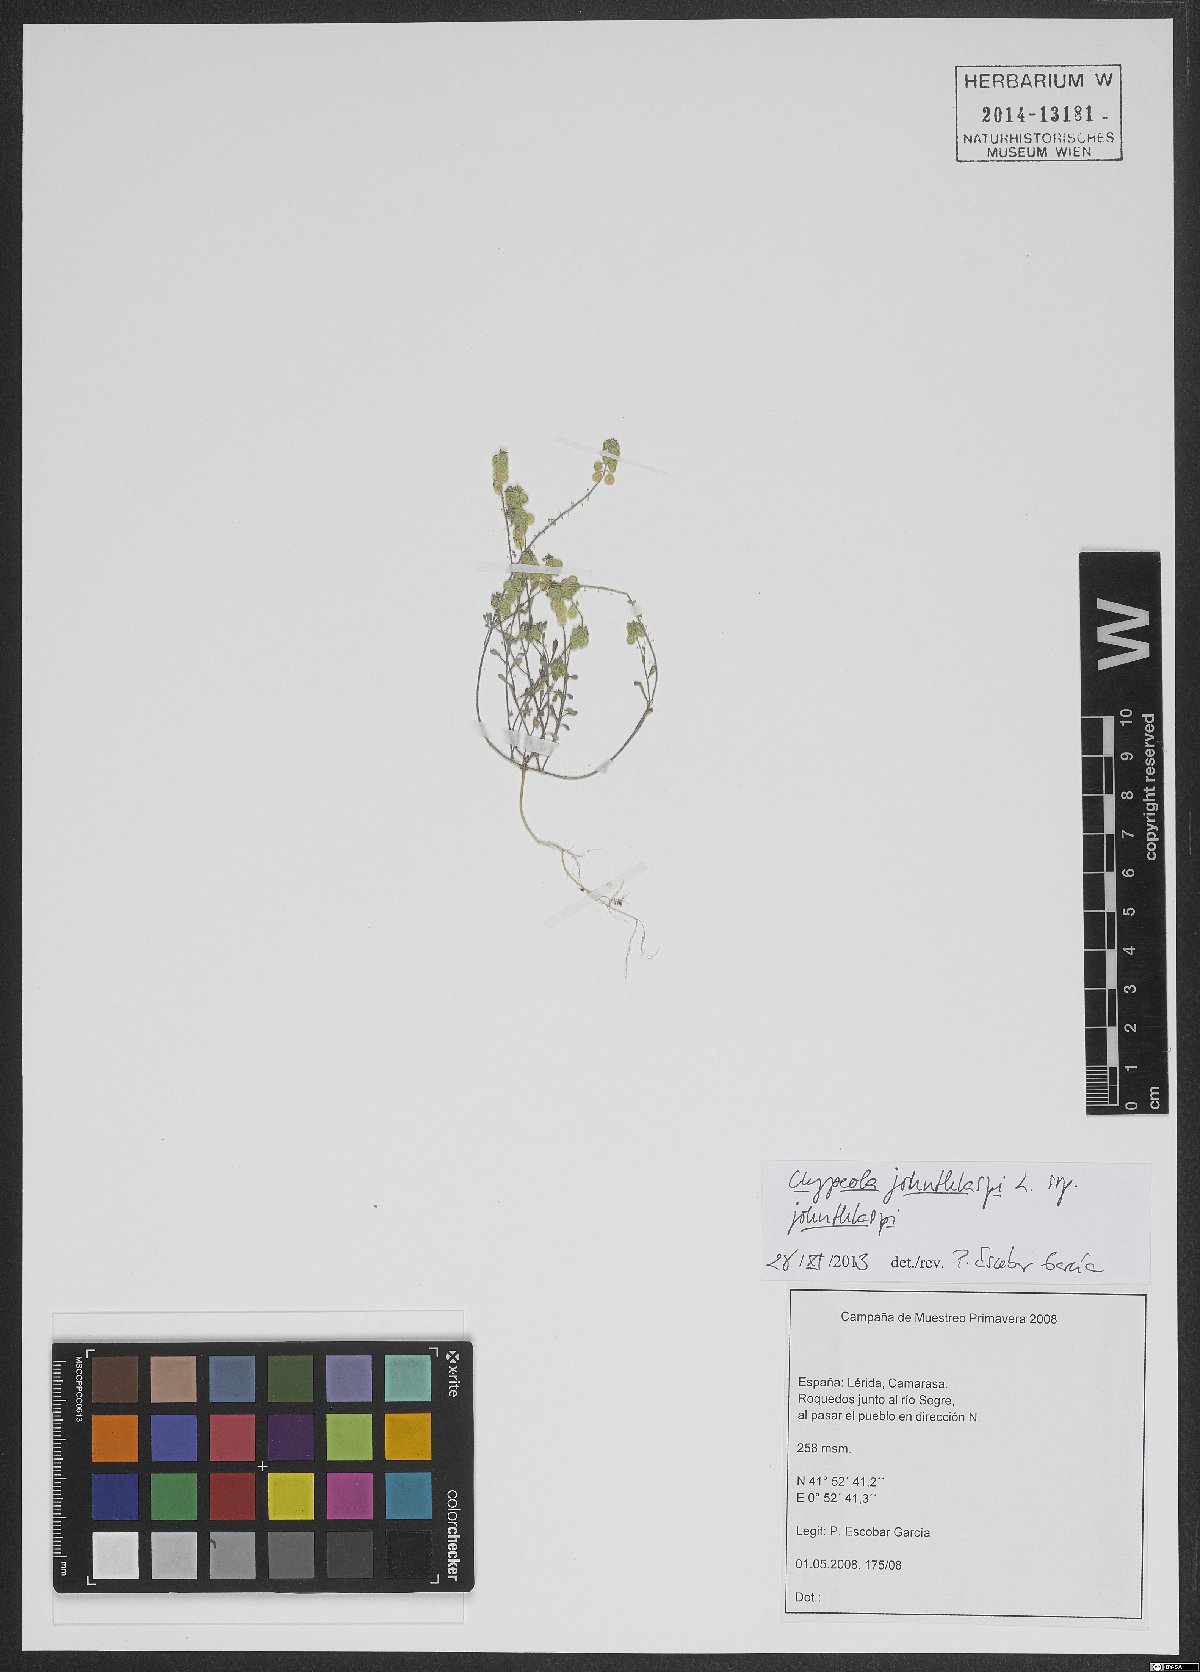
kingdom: Plantae
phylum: Tracheophyta
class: Magnoliopsida
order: Brassicales
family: Brassicaceae
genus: Clypeola
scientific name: Clypeola jonthlaspi
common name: Disk cress
